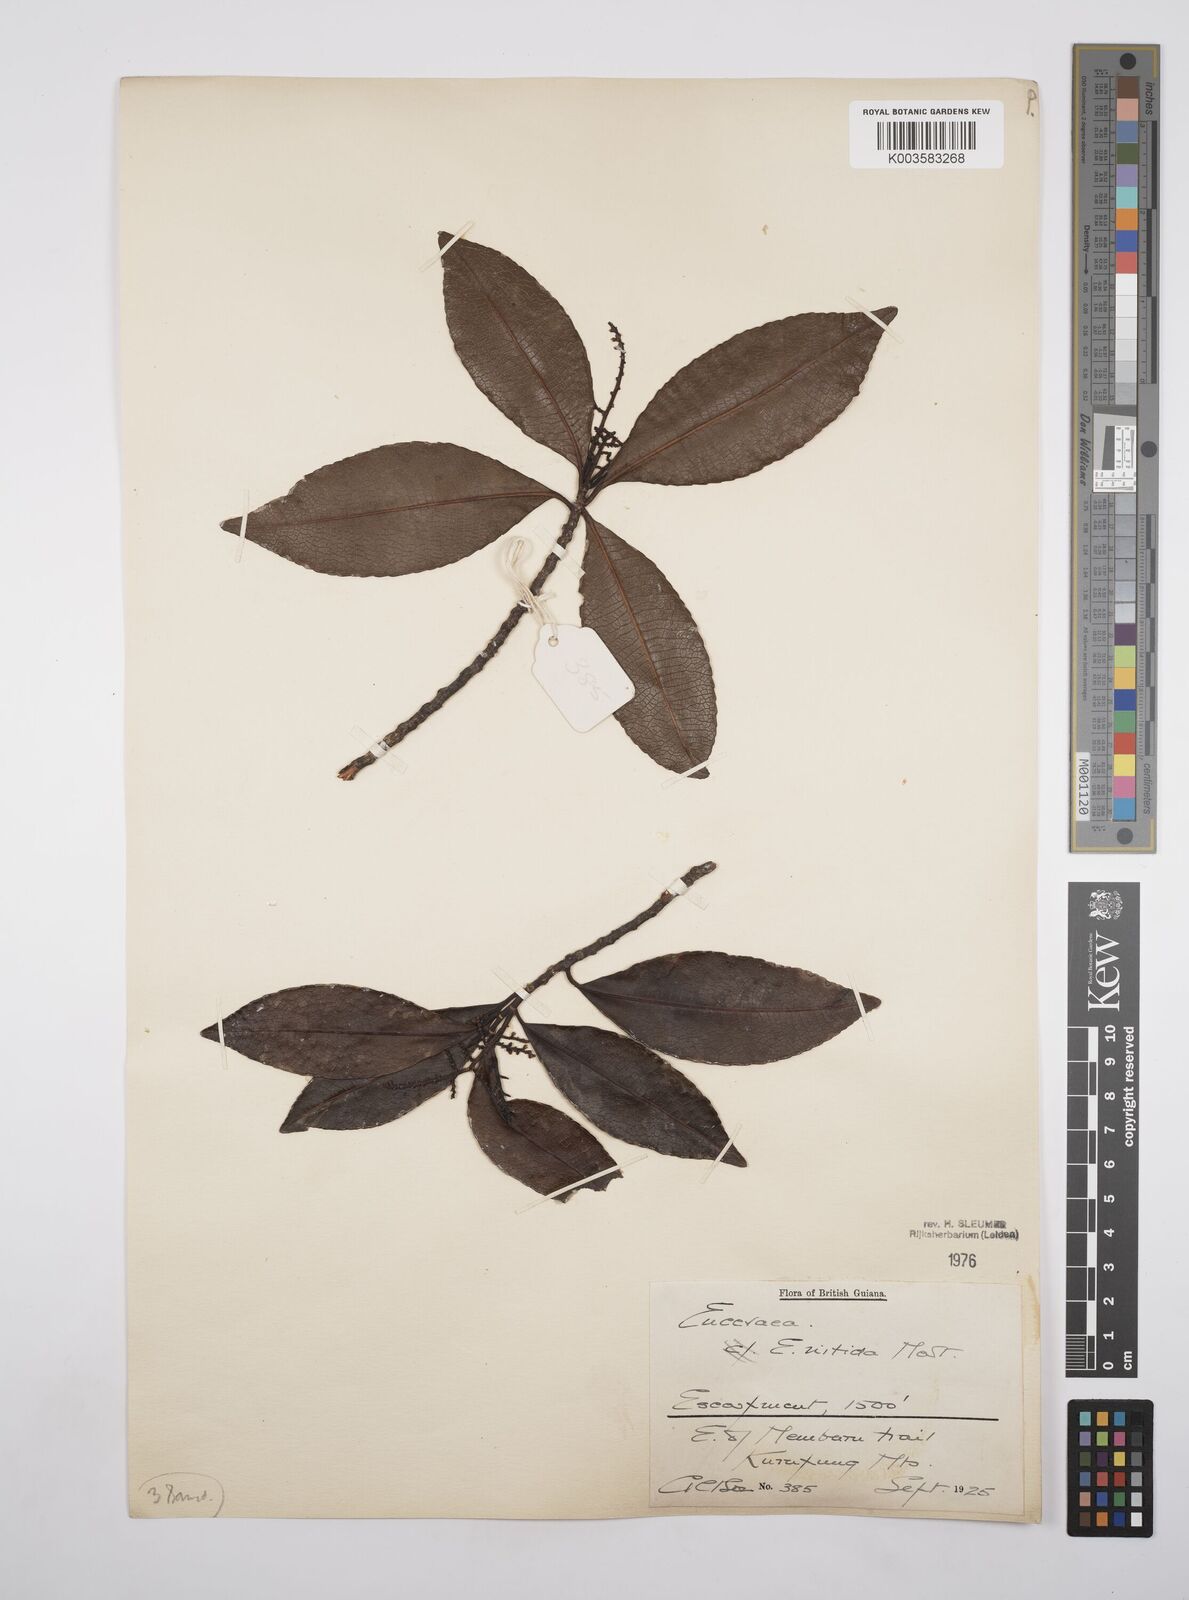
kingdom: Plantae
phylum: Tracheophyta
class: Magnoliopsida
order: Malpighiales
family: Salicaceae
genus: Casearia
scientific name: Casearia euceraea
